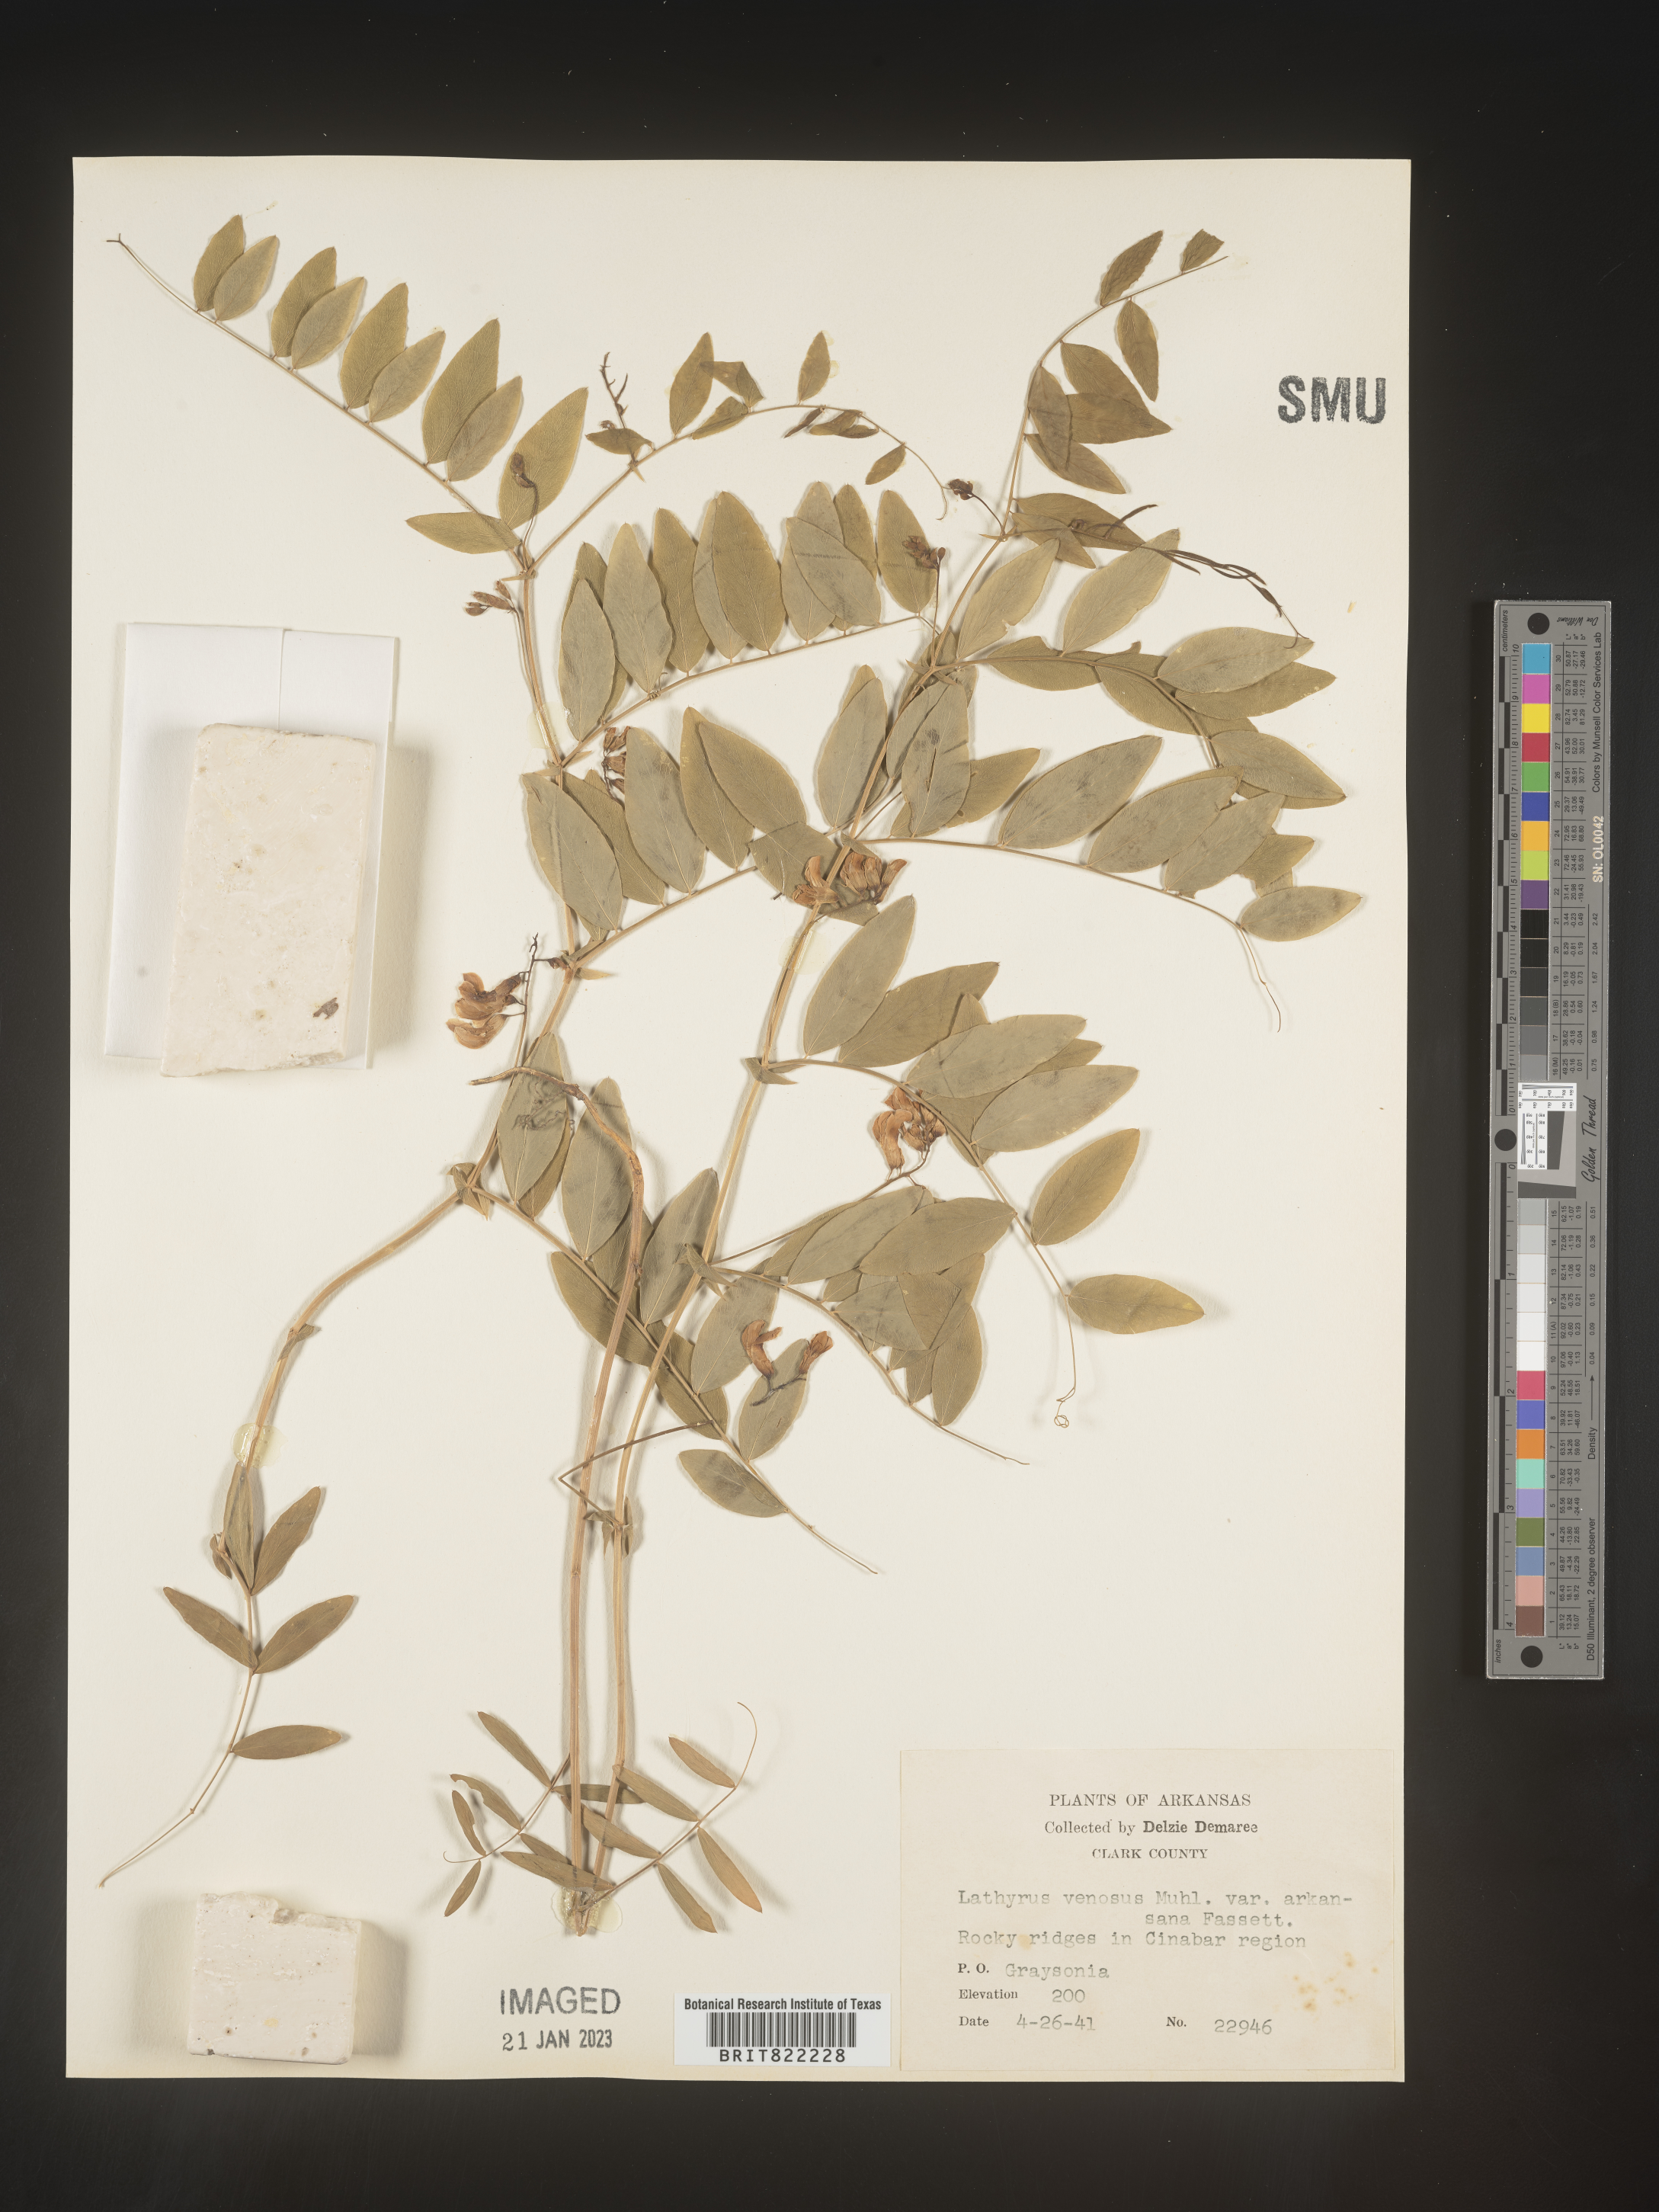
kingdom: Plantae
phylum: Tracheophyta
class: Magnoliopsida
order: Fabales
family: Fabaceae
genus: Lathyrus
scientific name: Lathyrus venosus
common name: Forest-pea
